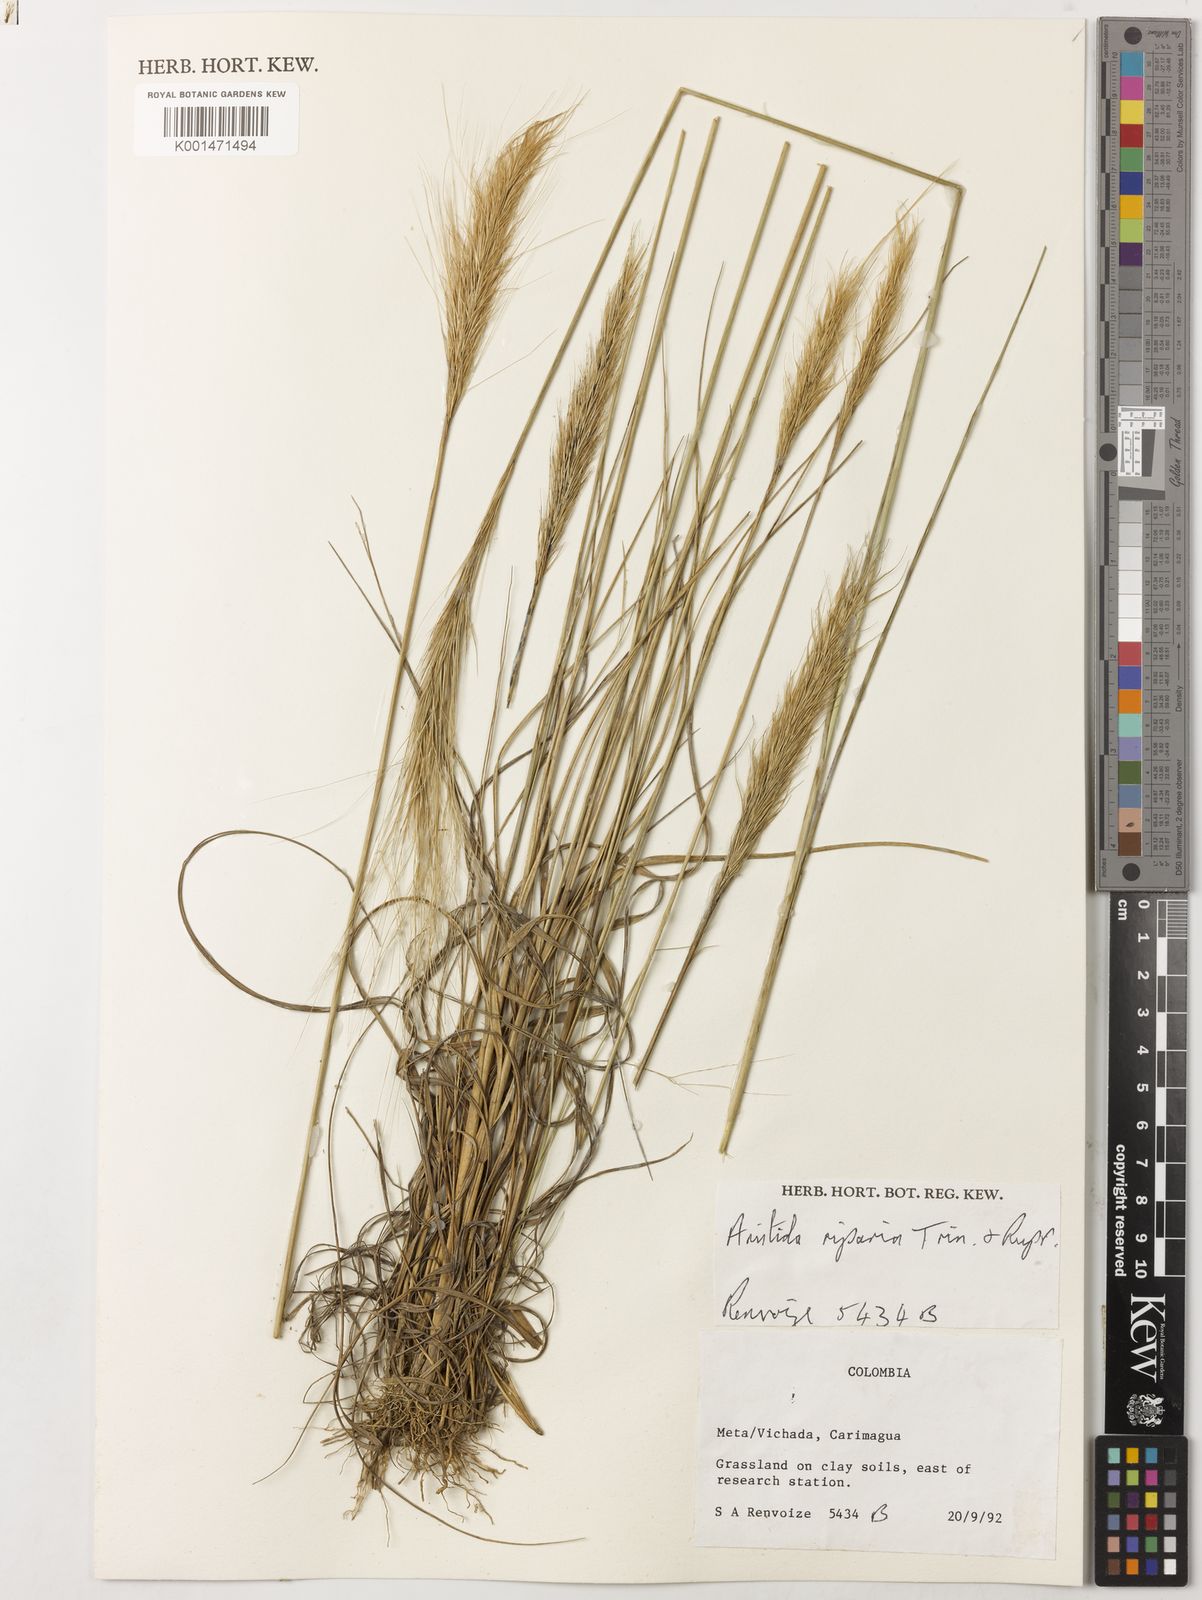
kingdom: Plantae
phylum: Tracheophyta
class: Liliopsida
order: Poales
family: Poaceae
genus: Aristida
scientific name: Aristida riparia
